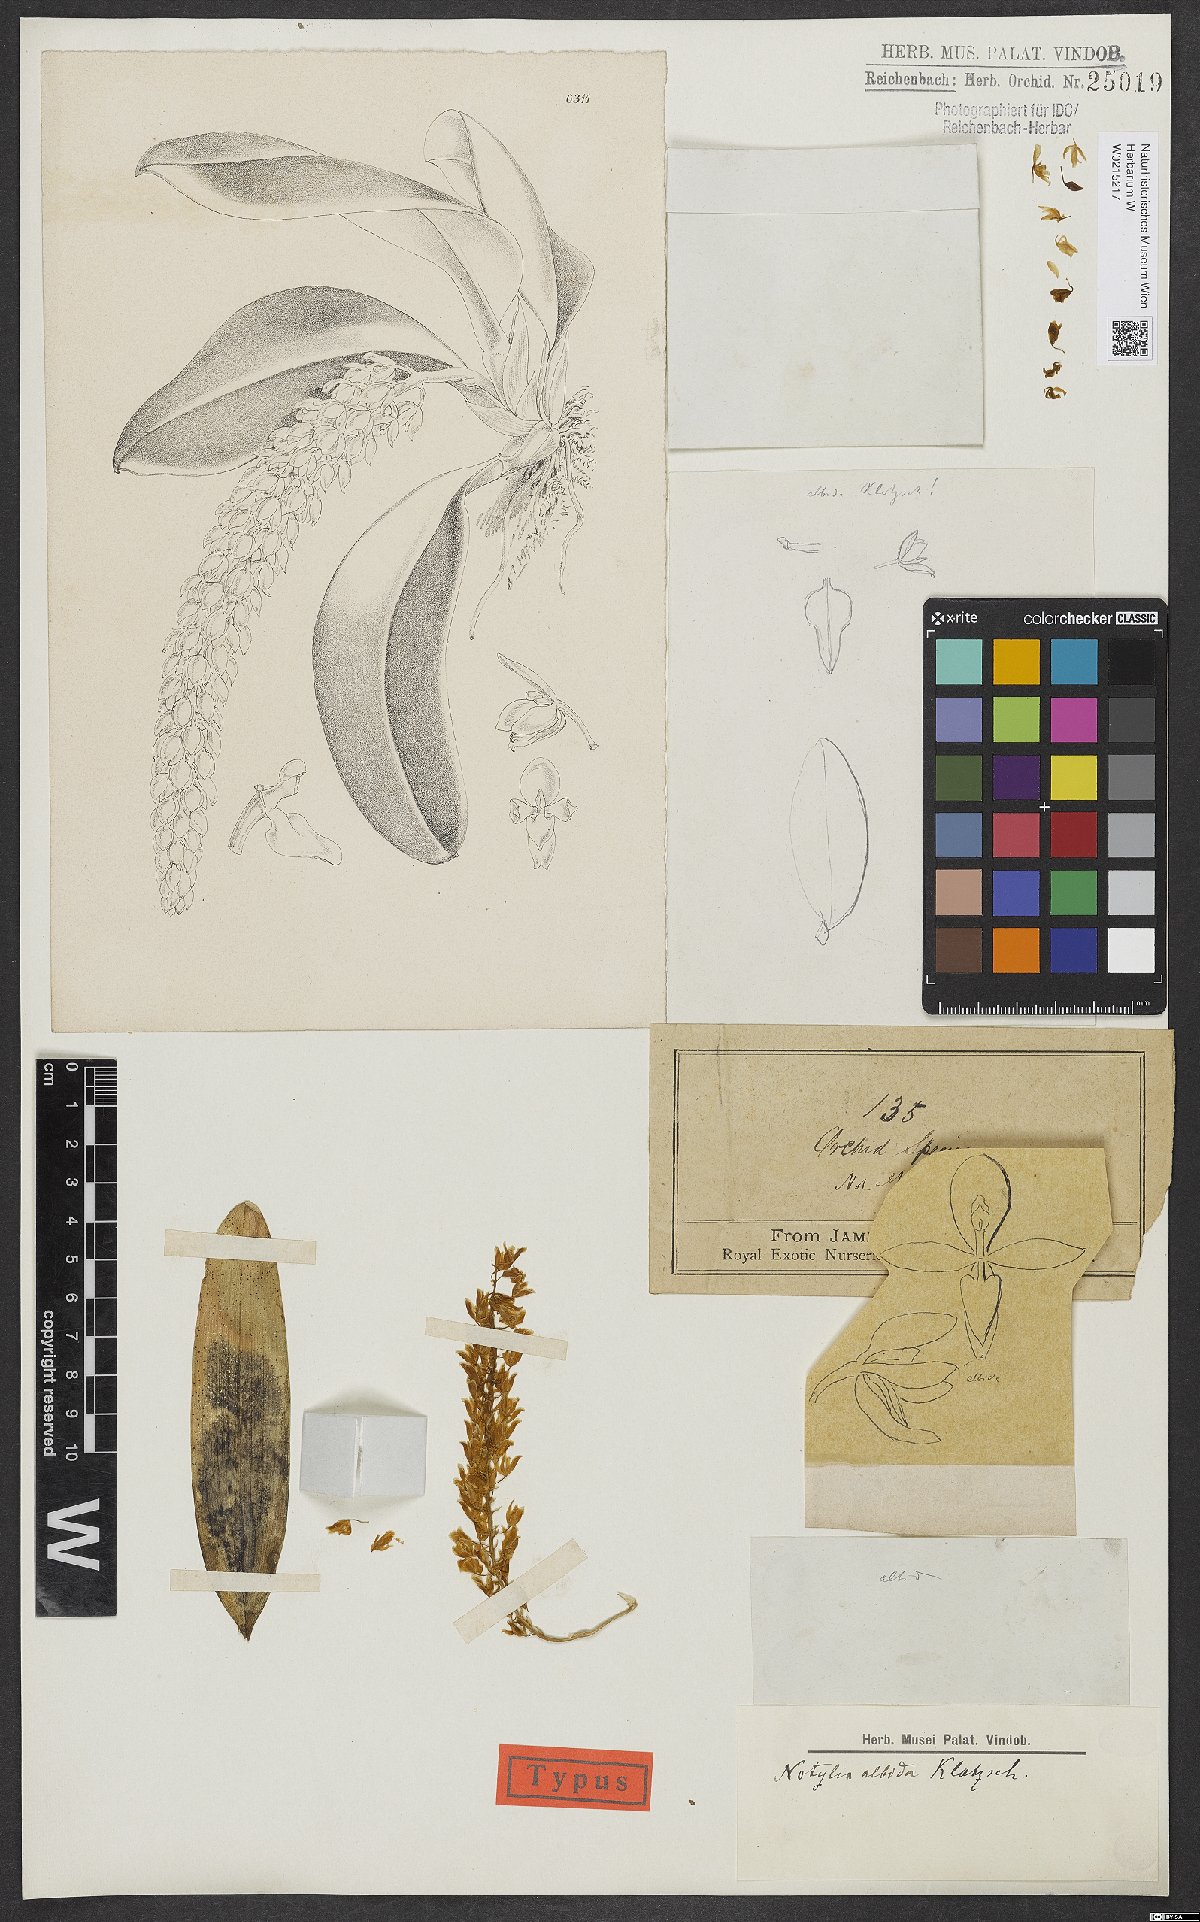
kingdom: Plantae
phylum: Tracheophyta
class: Liliopsida
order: Asparagales
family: Orchidaceae
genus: Notylia
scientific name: Notylia albida
